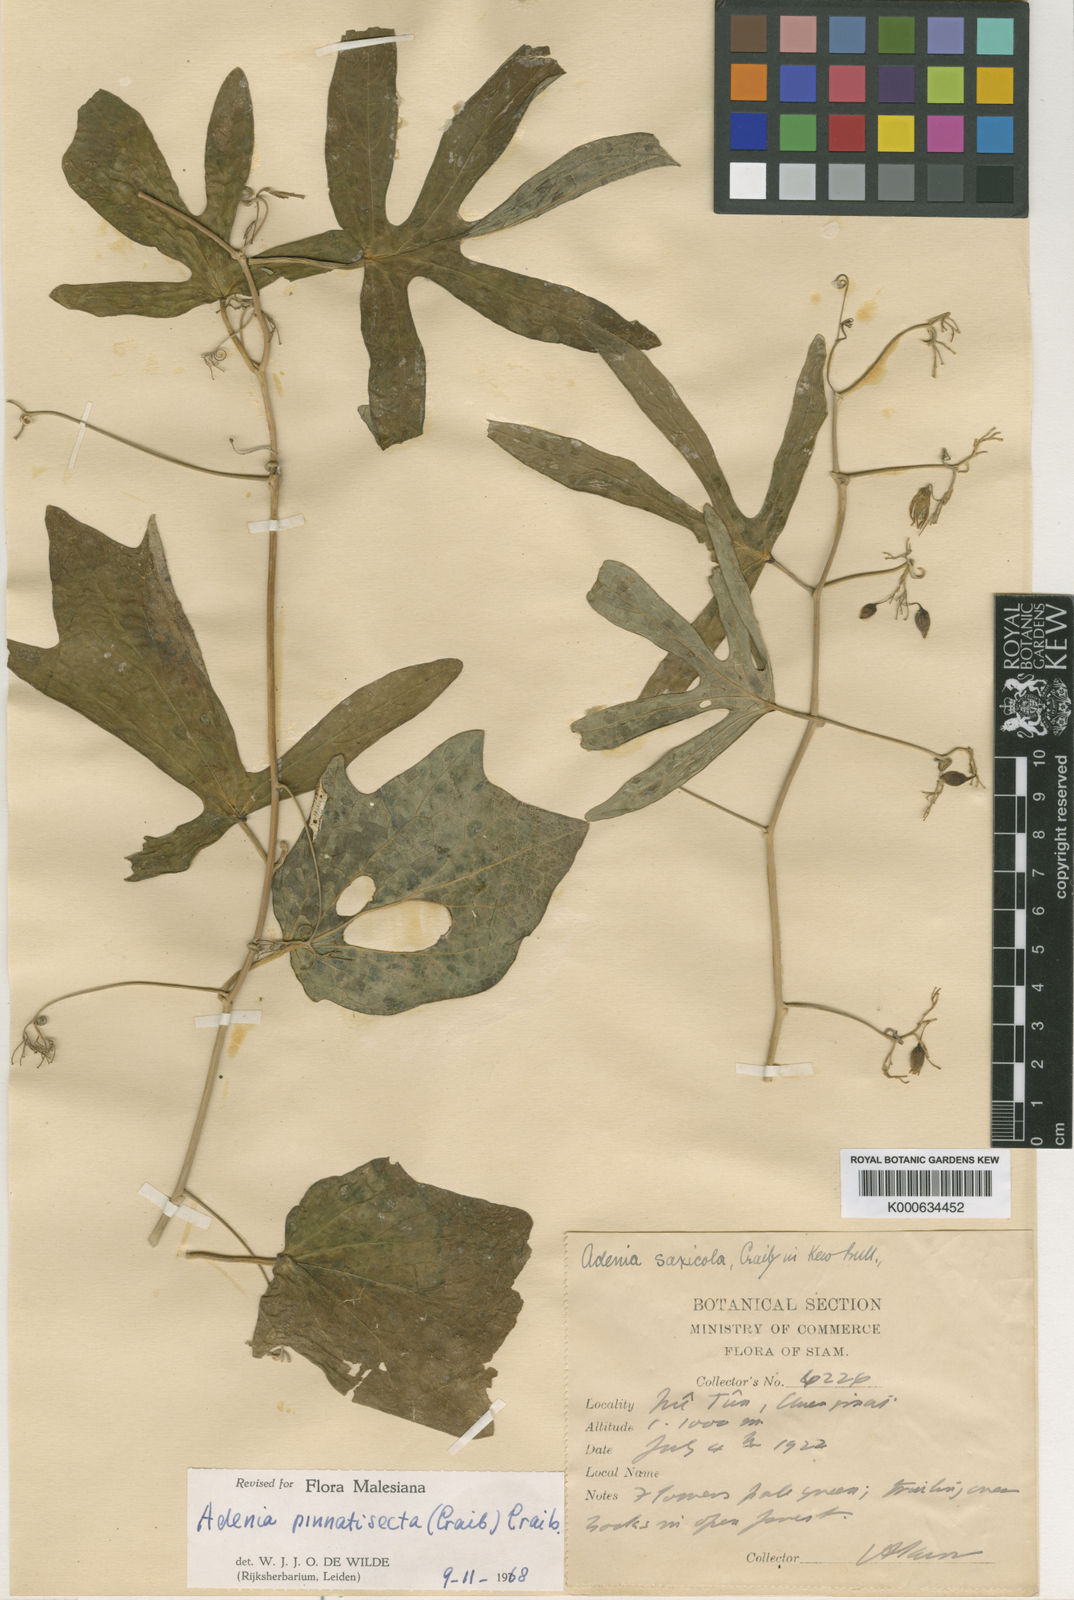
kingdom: Plantae
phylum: Tracheophyta
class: Magnoliopsida
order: Malpighiales
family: Passifloraceae
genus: Adenia
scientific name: Adenia
